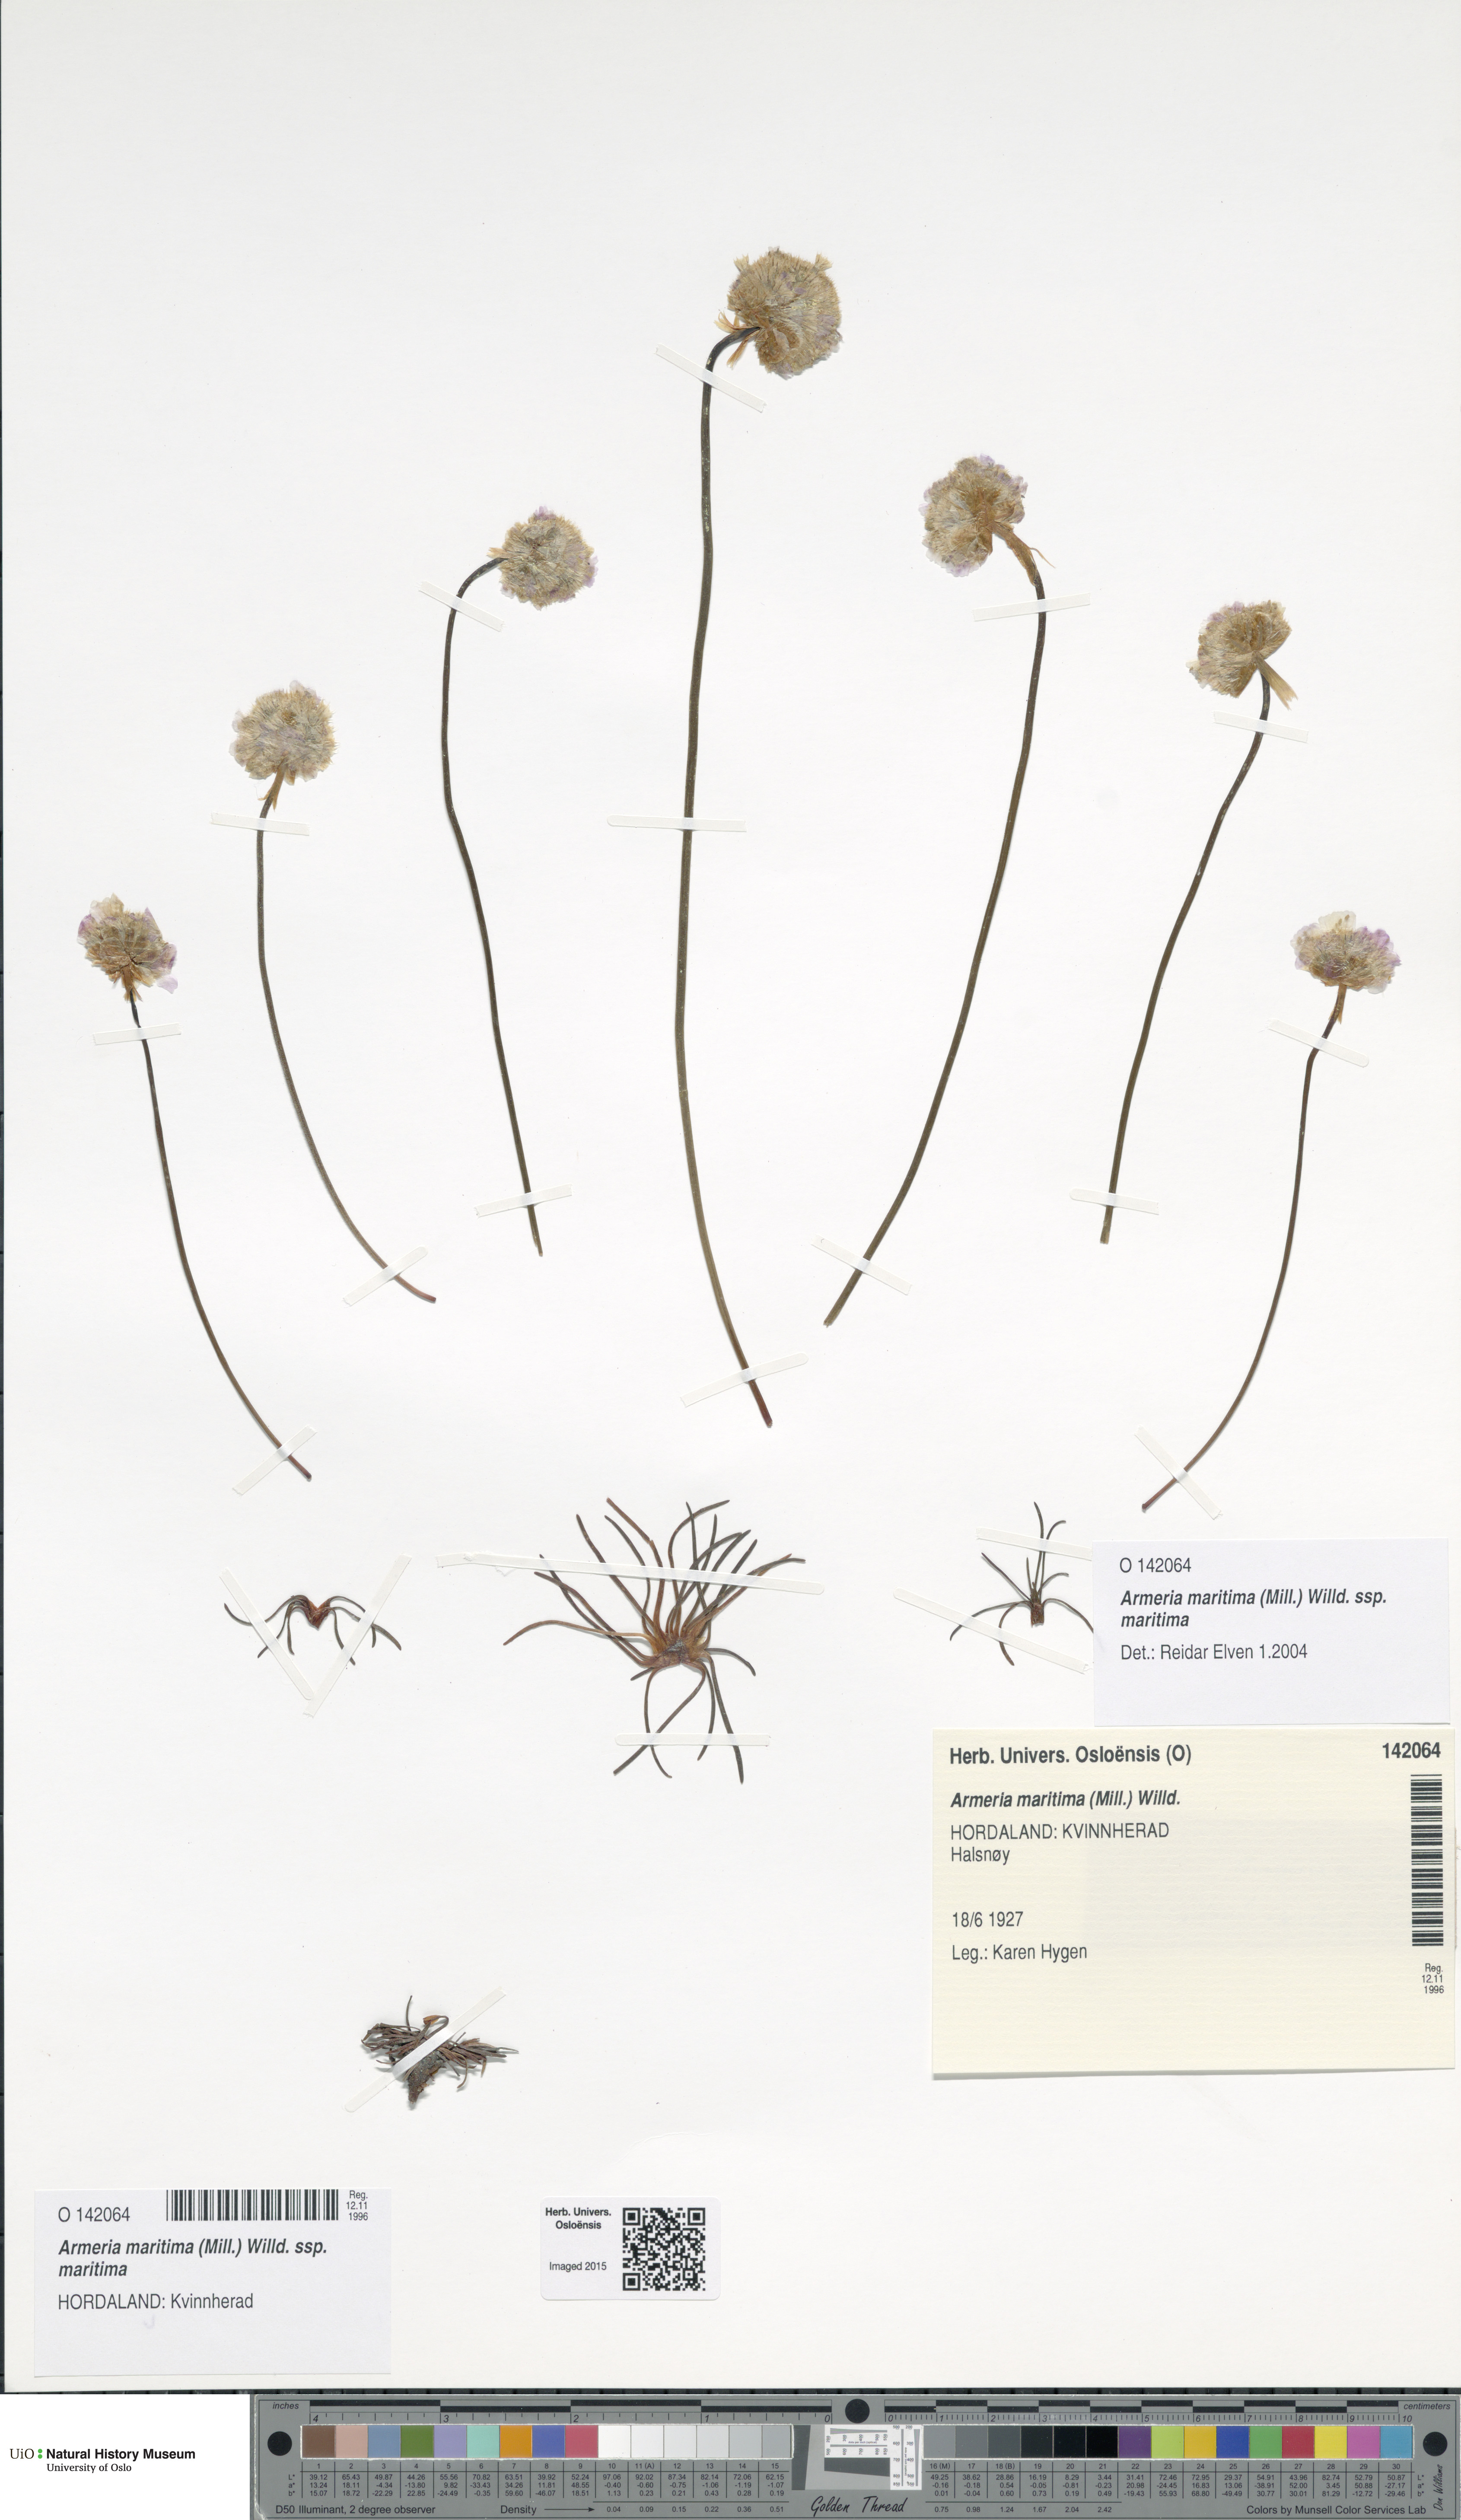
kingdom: Plantae
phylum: Tracheophyta
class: Magnoliopsida
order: Caryophyllales
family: Plumbaginaceae
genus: Armeria
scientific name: Armeria maritima
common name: Thrift
